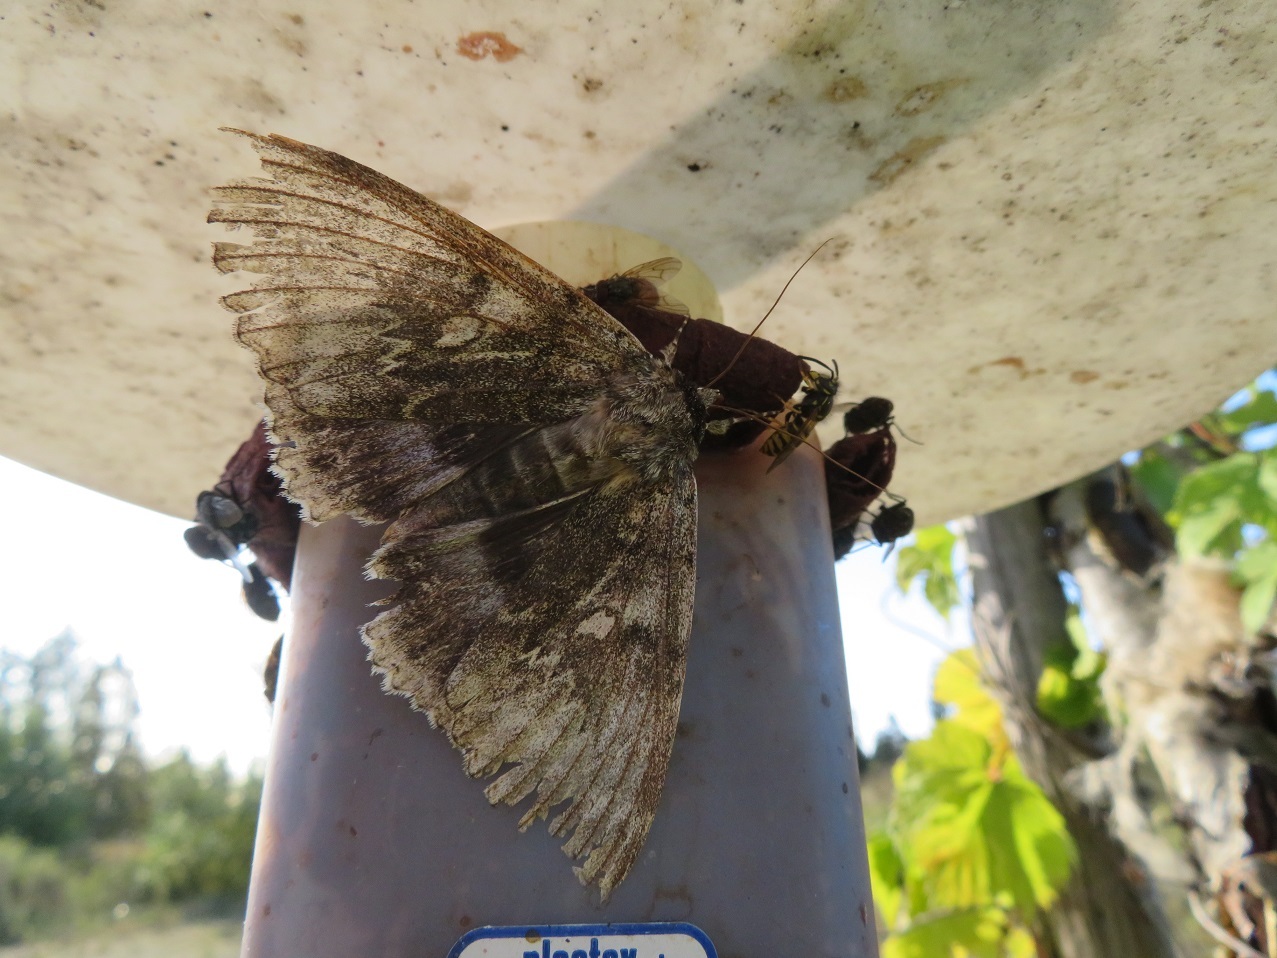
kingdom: Animalia
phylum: Arthropoda
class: Insecta
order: Lepidoptera
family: Erebidae
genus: Catocala
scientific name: Catocala fraxini
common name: Clifden nonpareil
